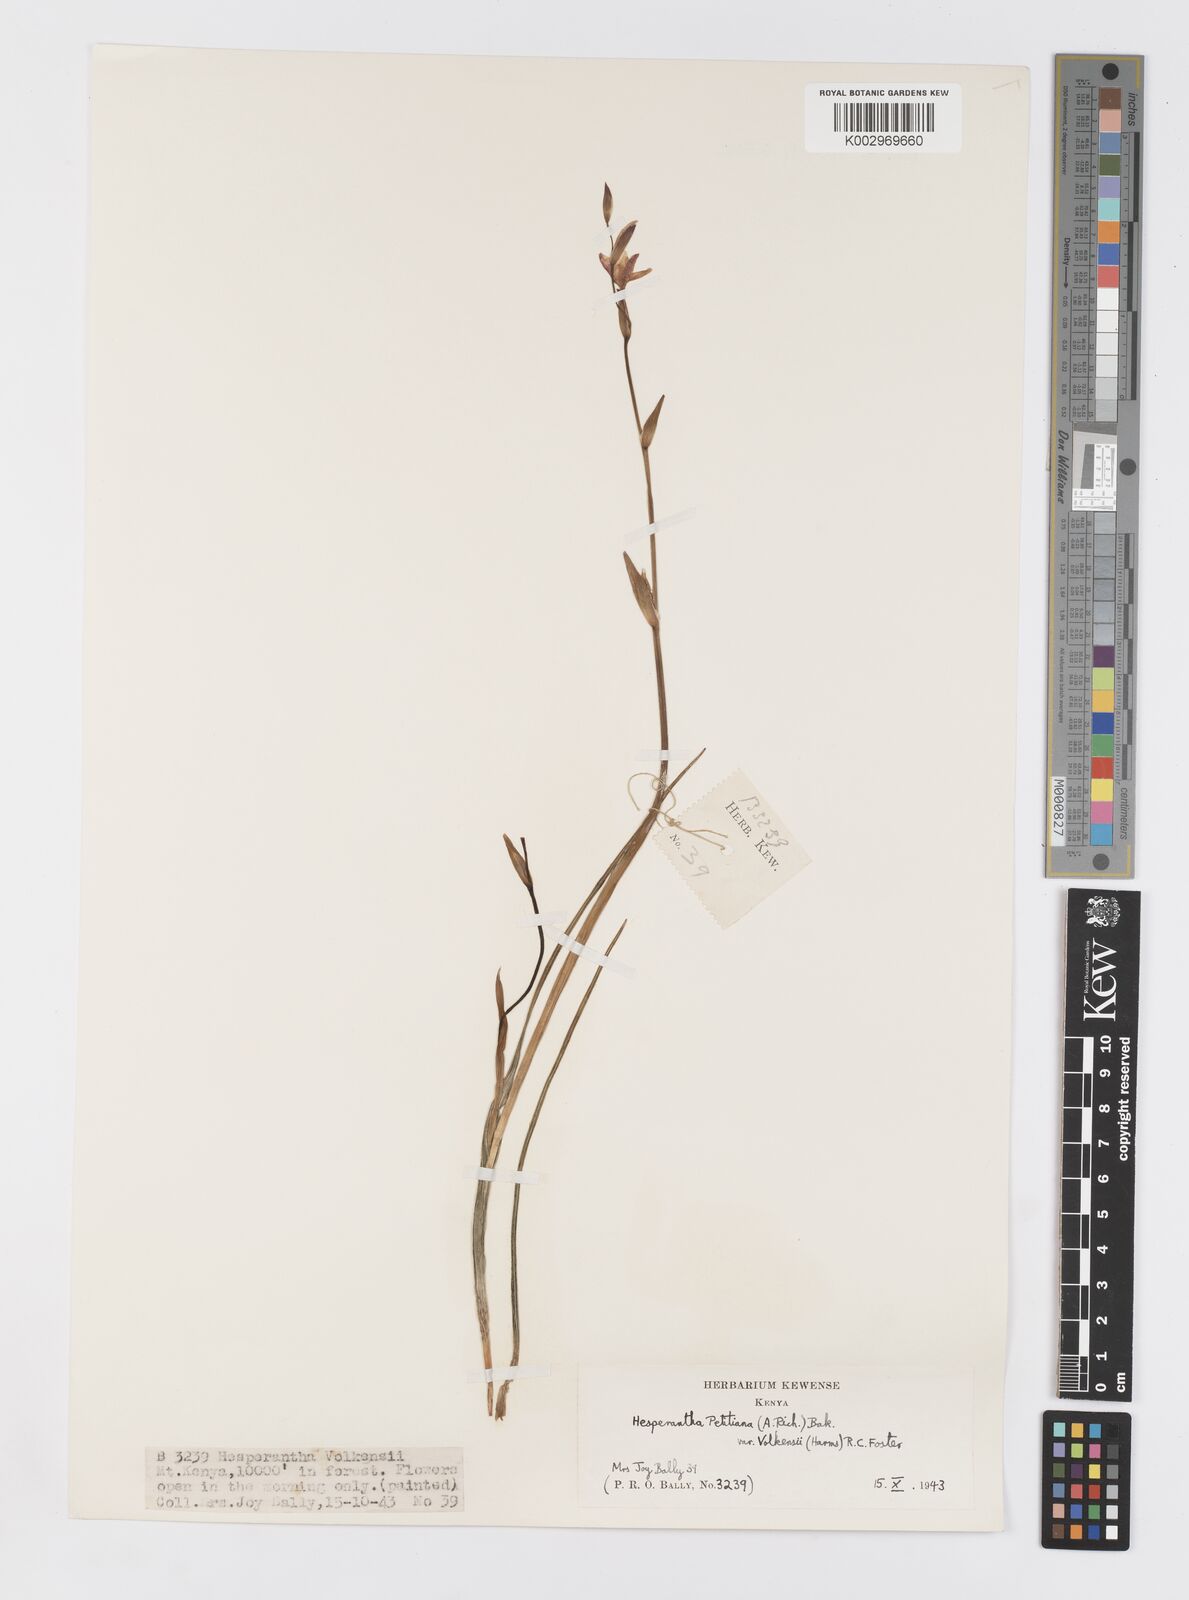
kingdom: Plantae
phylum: Tracheophyta
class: Liliopsida
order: Asparagales
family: Iridaceae
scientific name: Iridaceae
